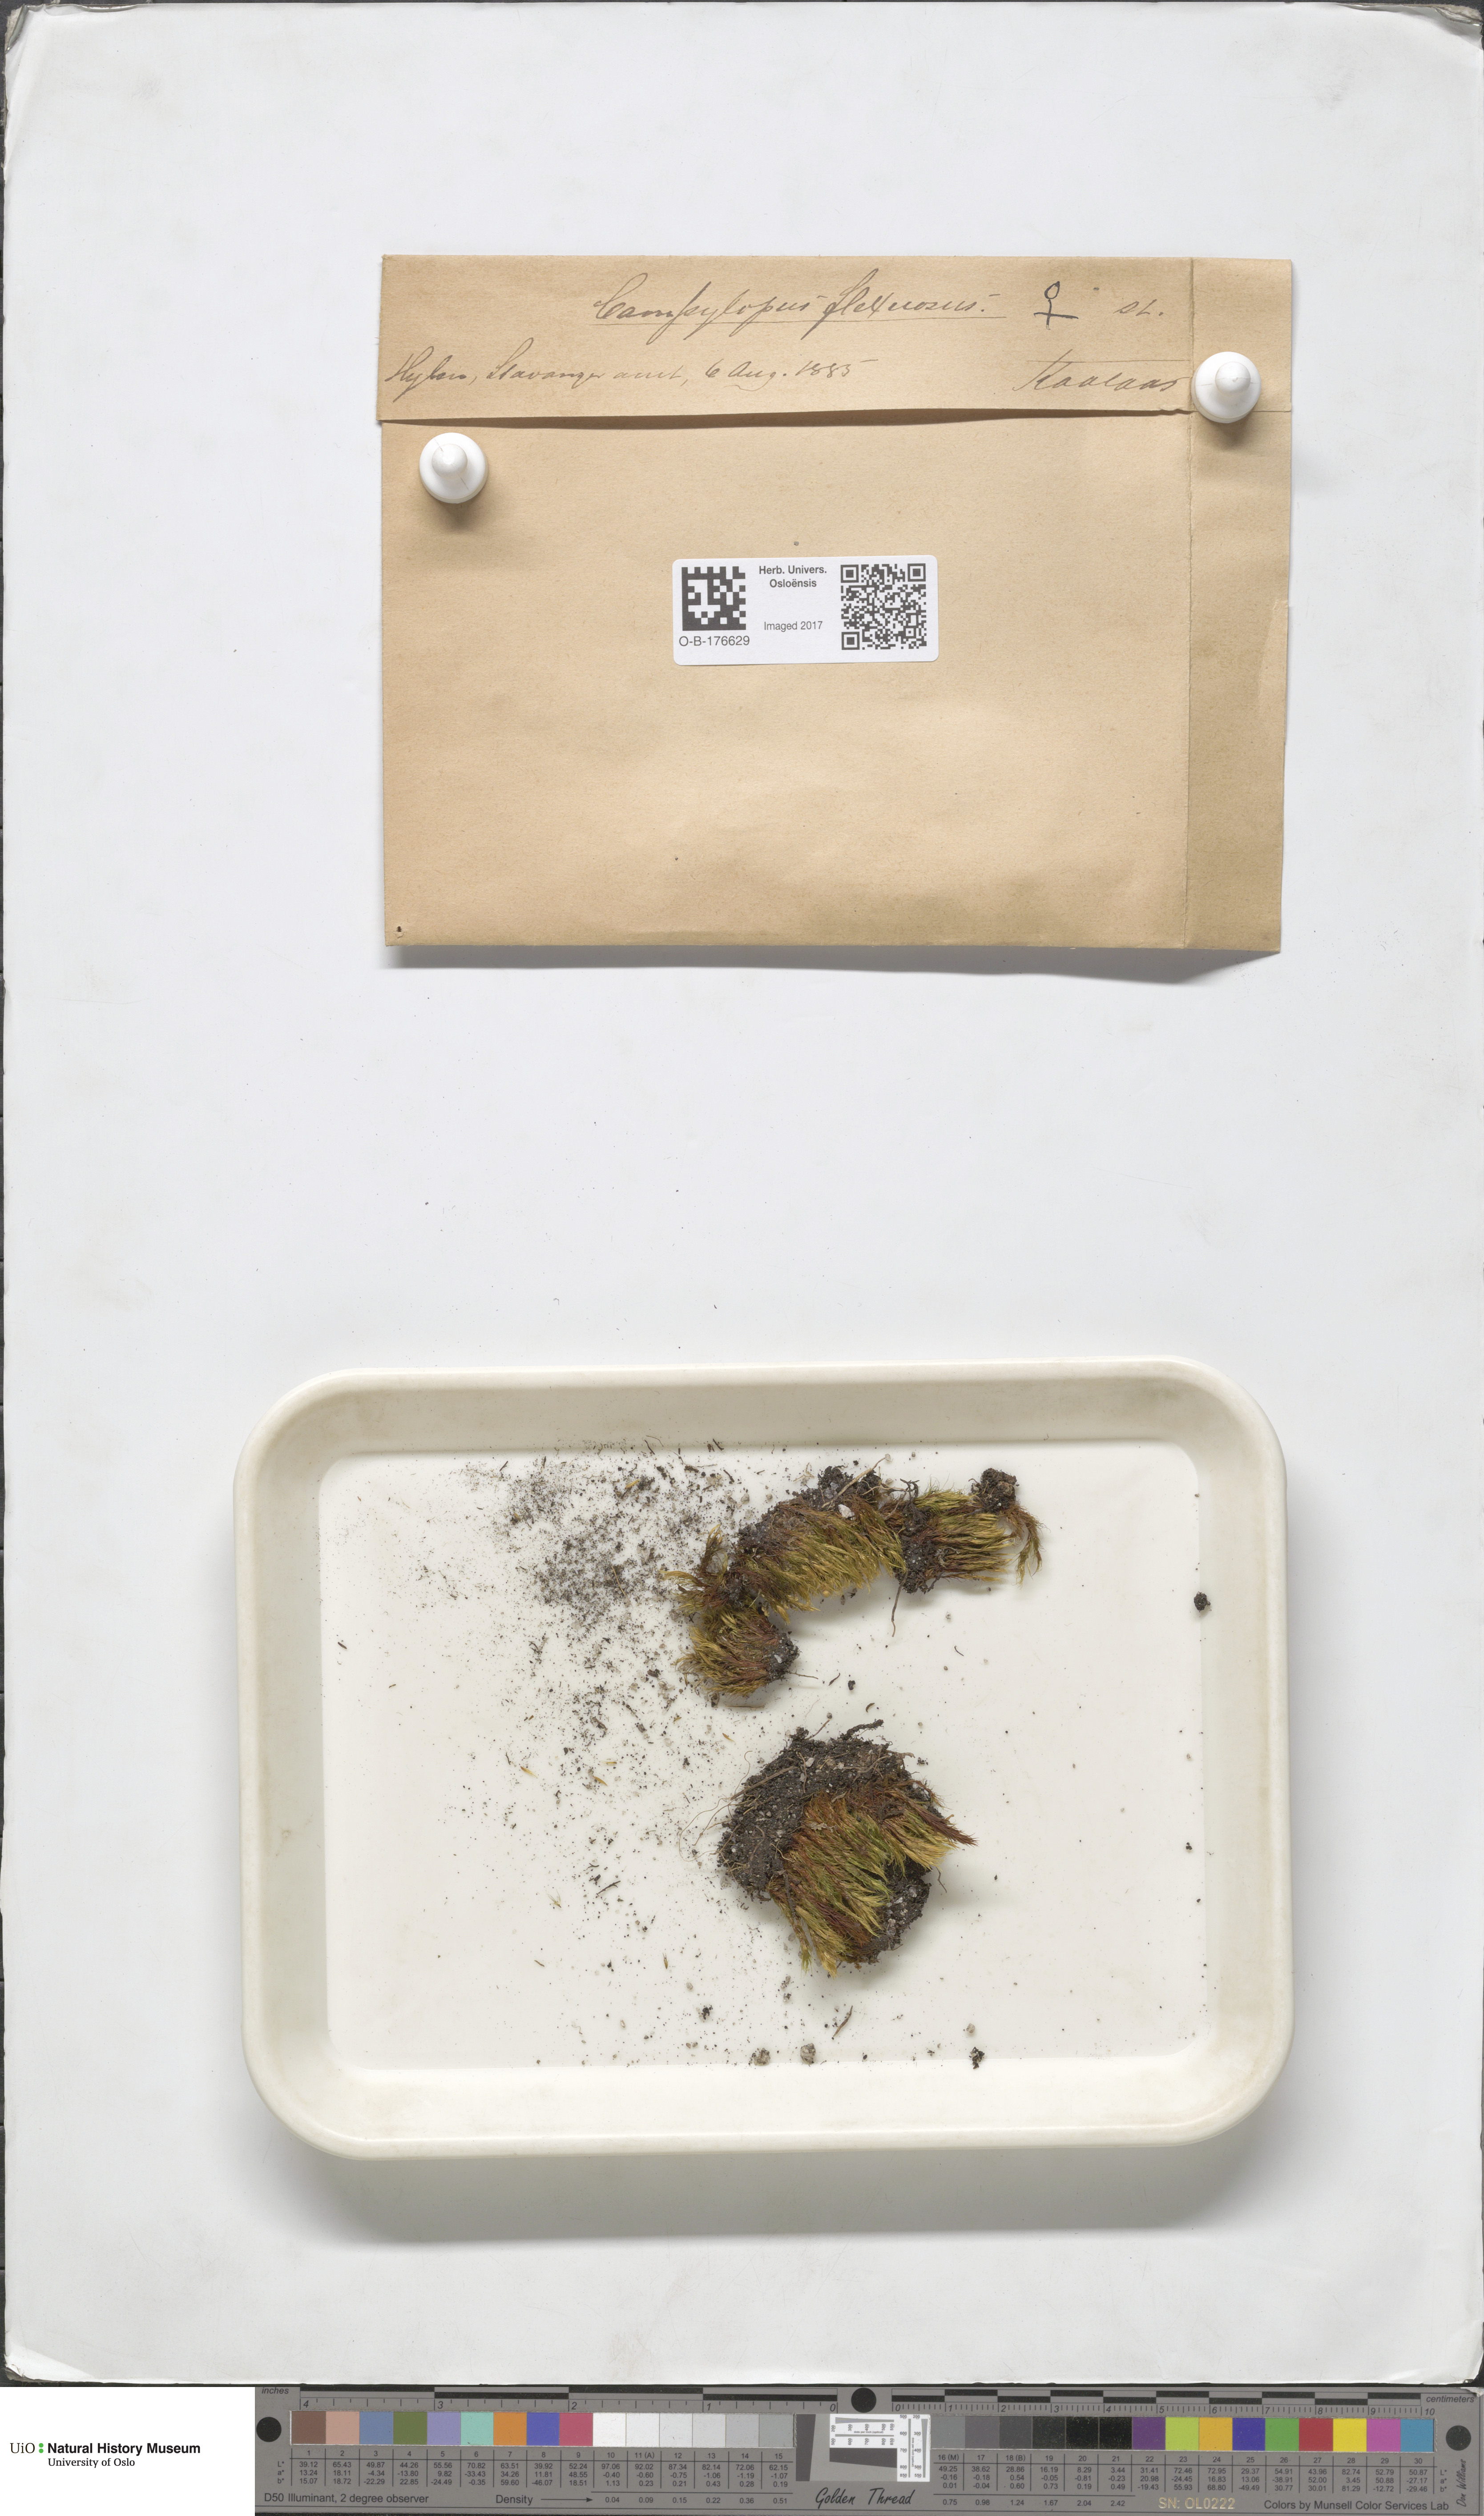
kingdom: Plantae
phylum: Bryophyta
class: Bryopsida
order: Dicranales
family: Leucobryaceae
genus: Campylopus
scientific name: Campylopus flexuosus
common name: Rusty swan-neck moss
